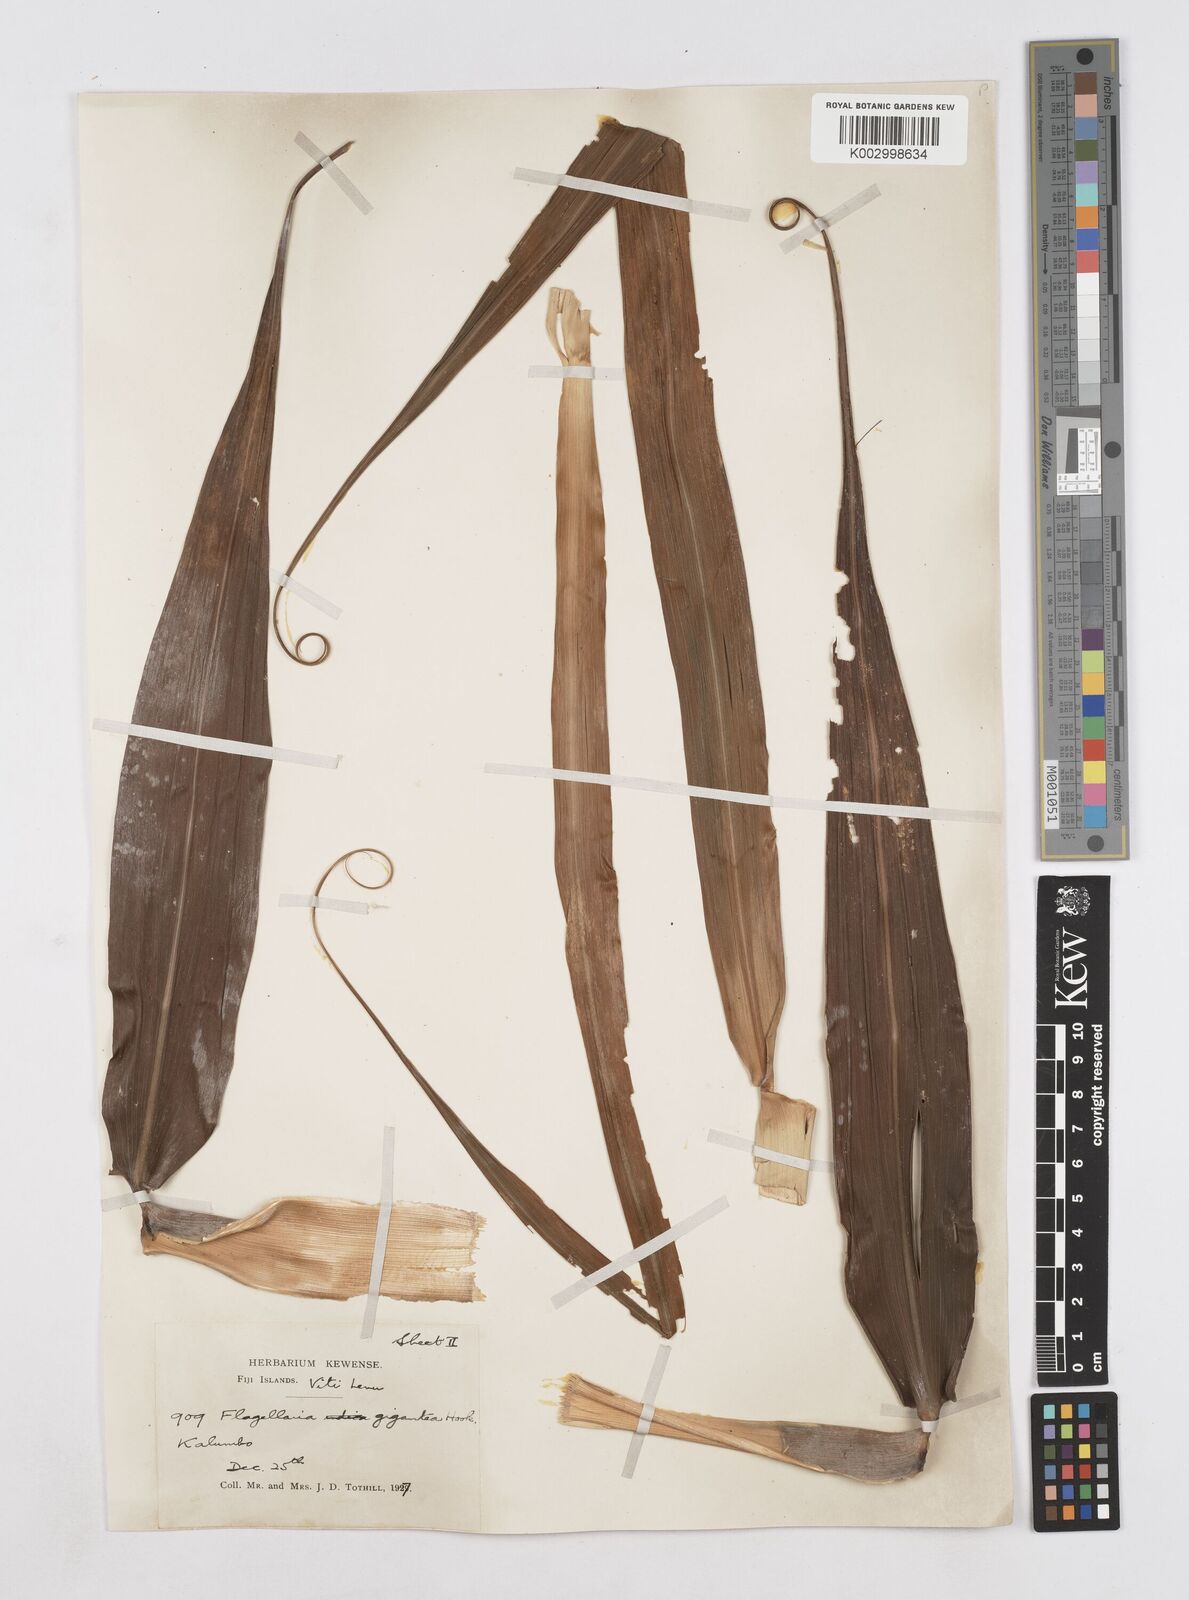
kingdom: Plantae
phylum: Tracheophyta
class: Liliopsida
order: Poales
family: Flagellariaceae
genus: Flagellaria
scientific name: Flagellaria gigantea
